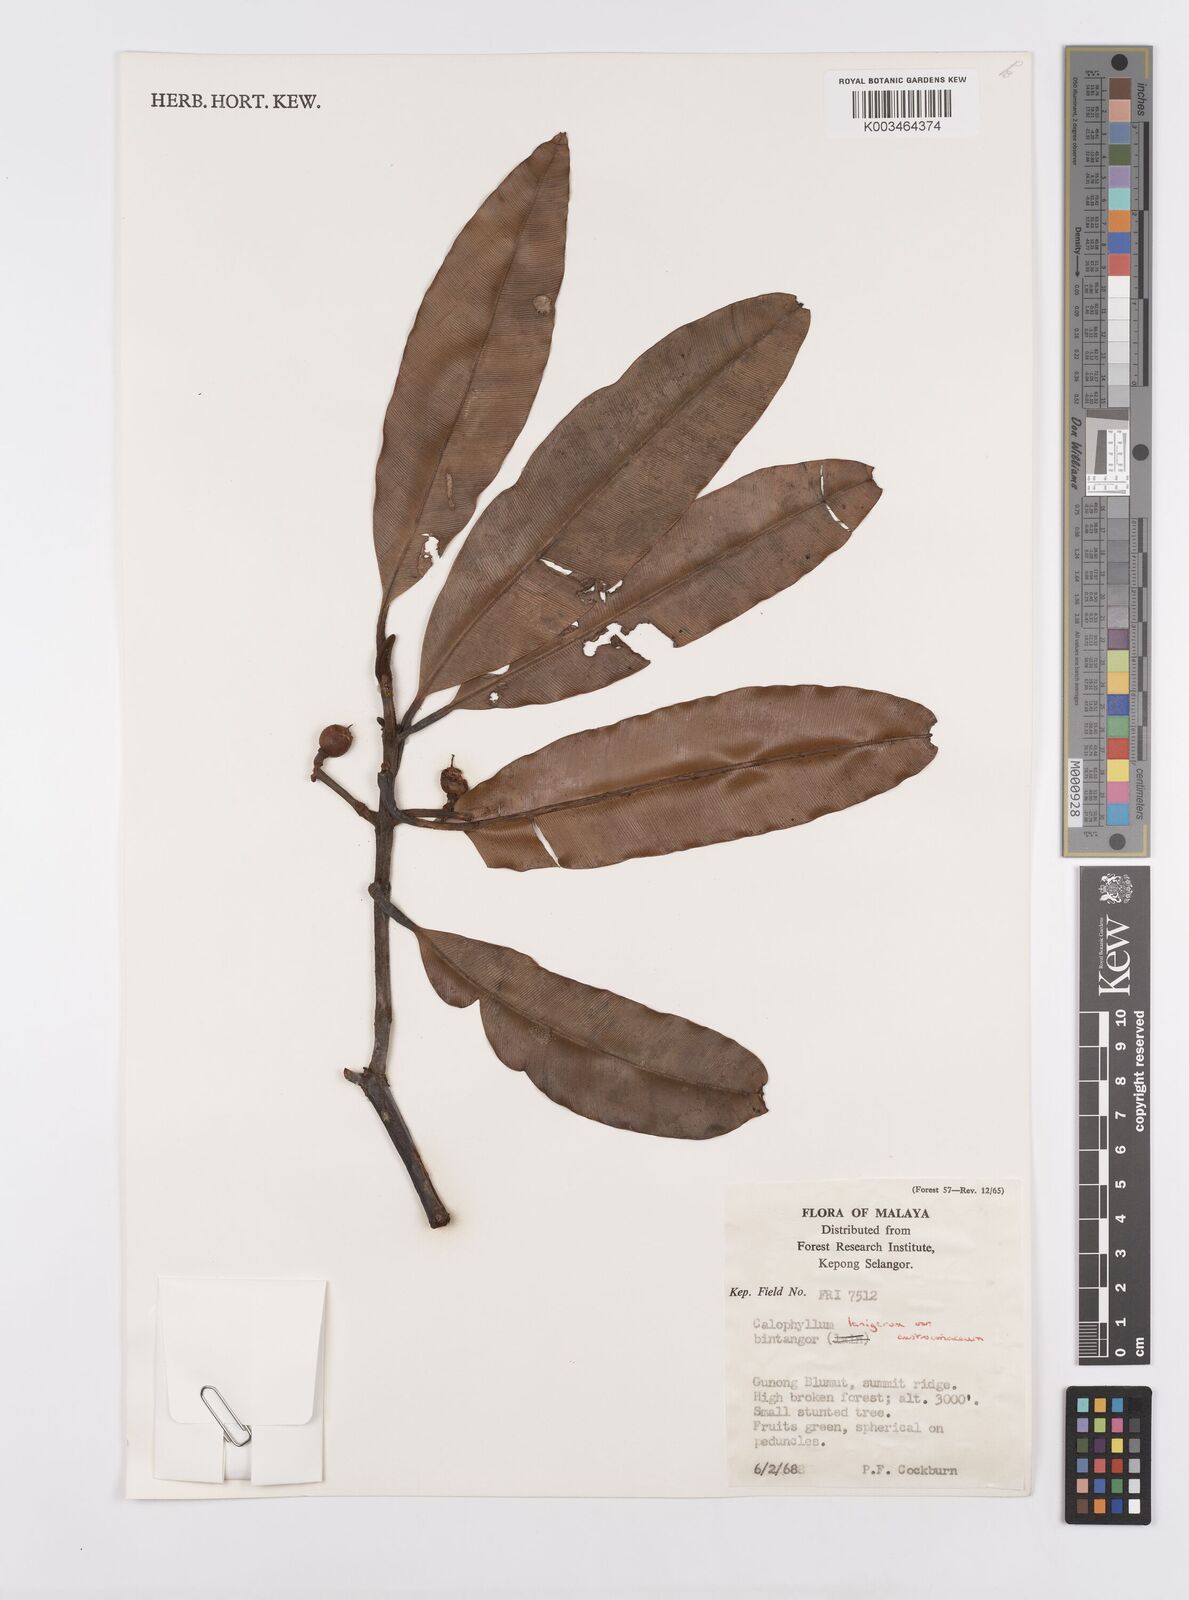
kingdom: Plantae
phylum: Tracheophyta
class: Magnoliopsida
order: Malpighiales
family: Calophyllaceae
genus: Calophyllum
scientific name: Calophyllum lanigerum
